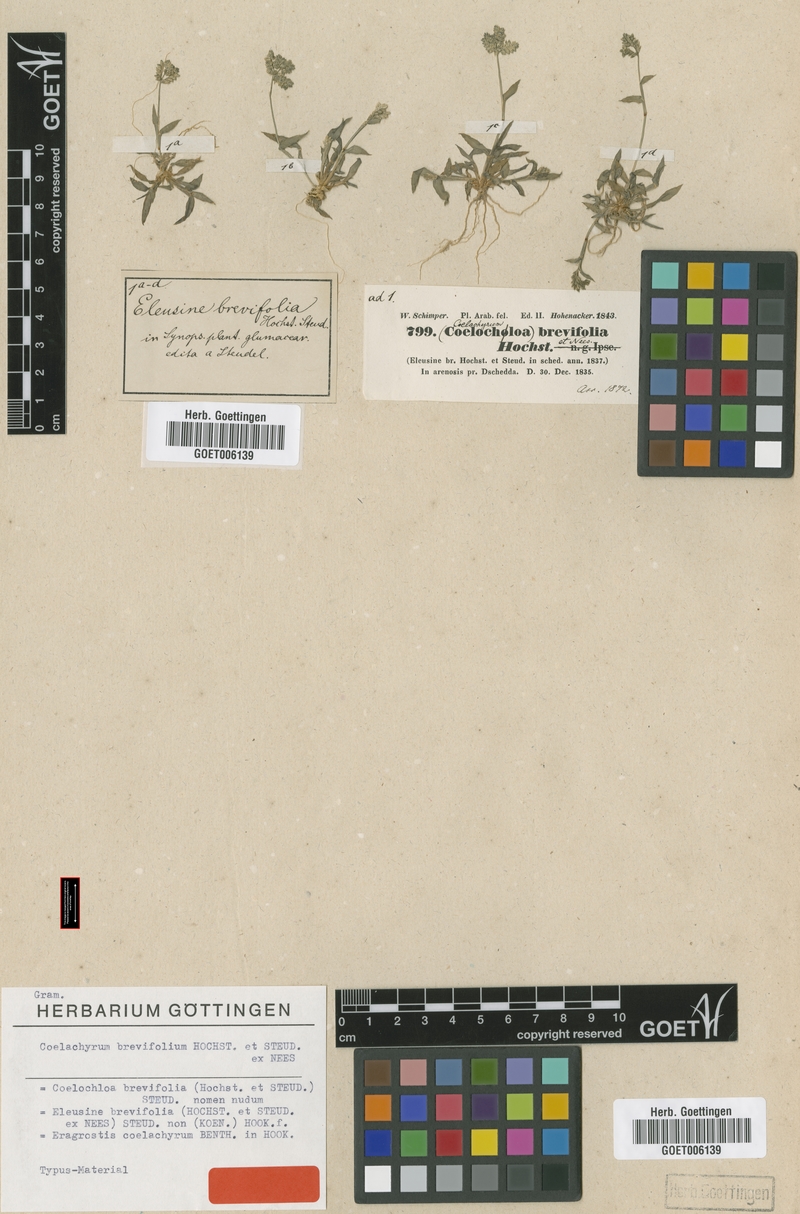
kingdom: Plantae
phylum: Tracheophyta
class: Liliopsida
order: Poales
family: Poaceae
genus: Coelachyrum
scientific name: Coelachyrum brevifolium
